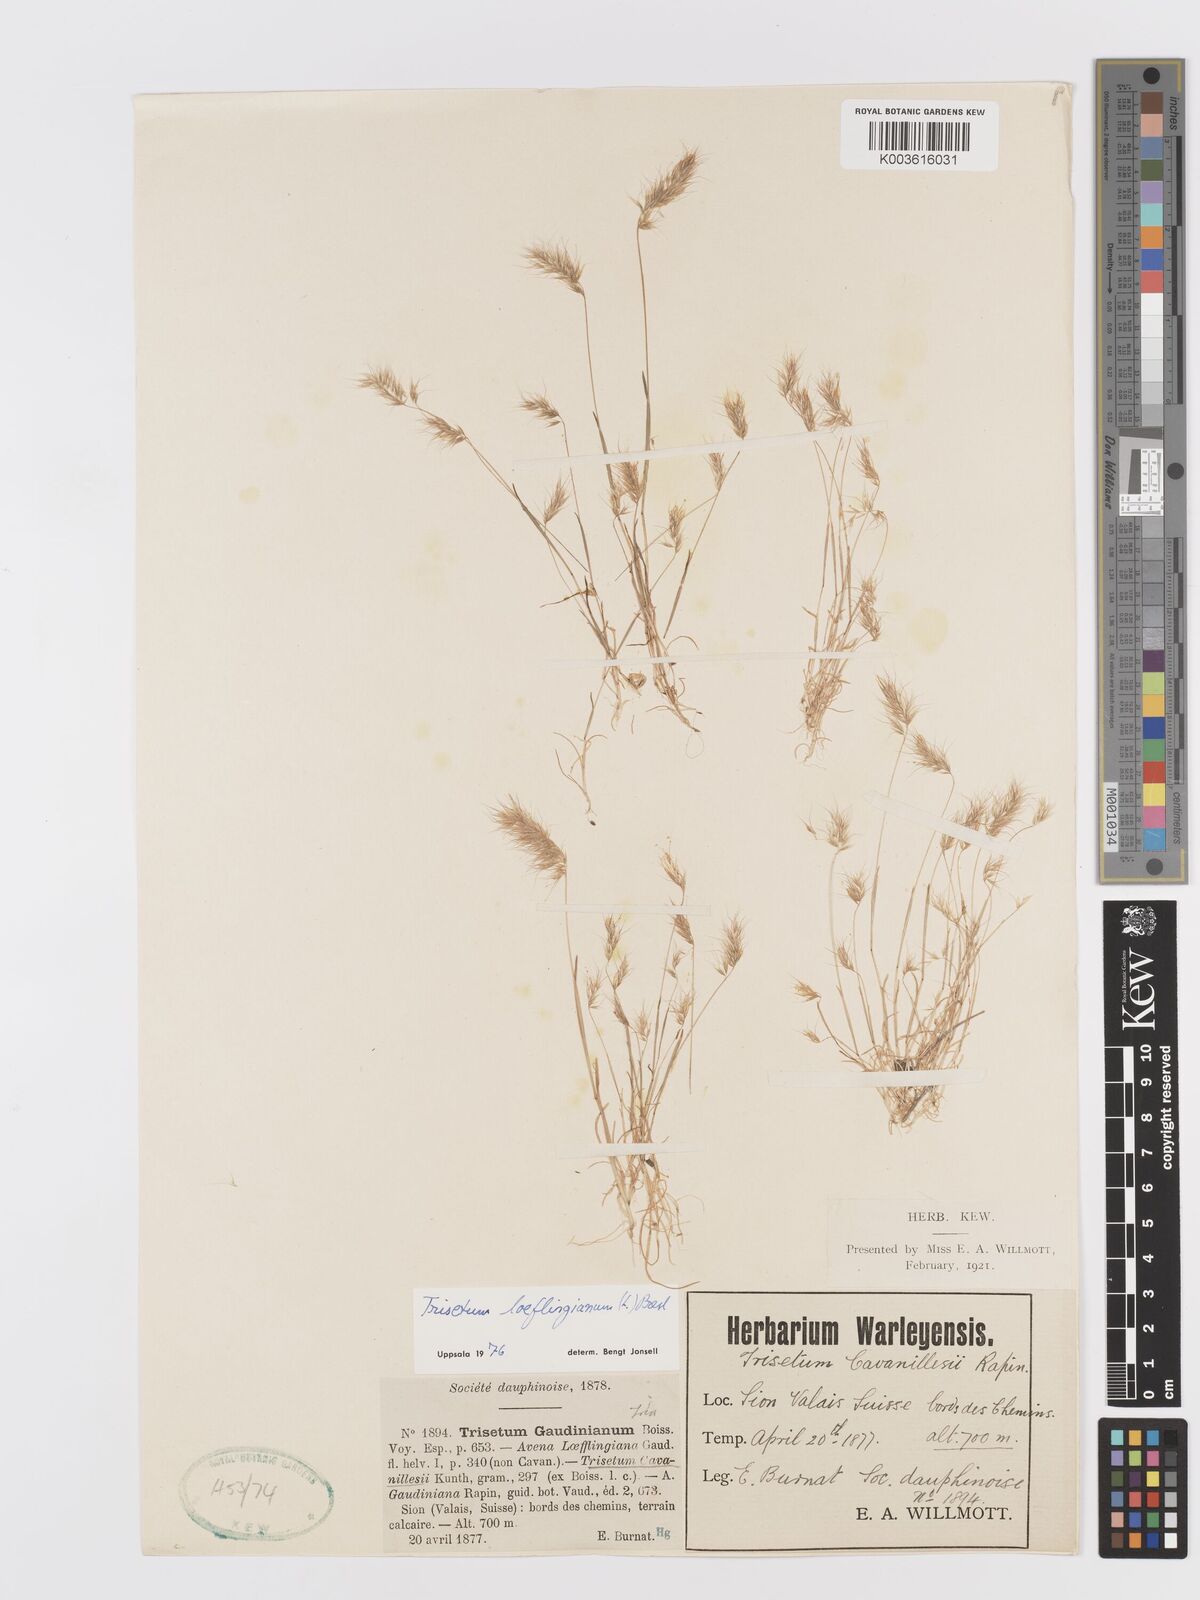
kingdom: Plantae
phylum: Tracheophyta
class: Liliopsida
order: Poales
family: Poaceae
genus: Trisetaria
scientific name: Trisetaria loeflingiana
